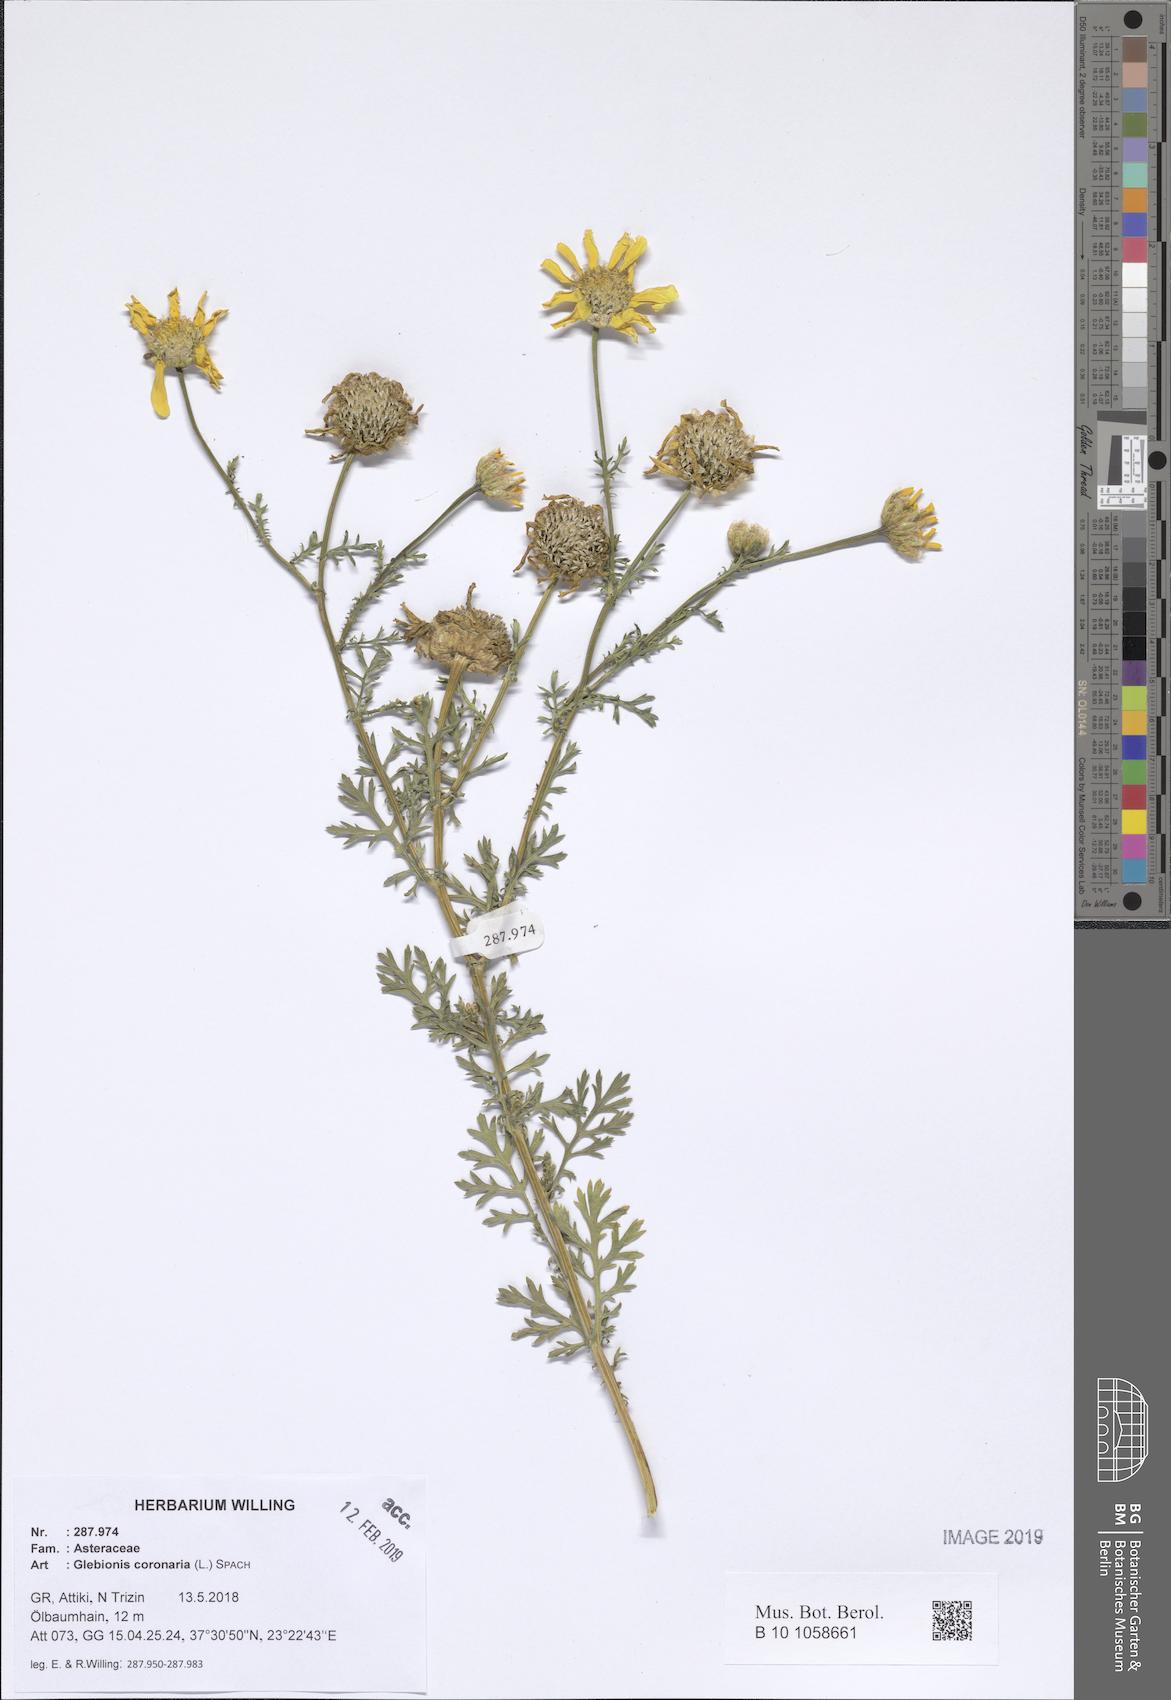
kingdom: Plantae
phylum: Tracheophyta
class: Magnoliopsida
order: Asterales
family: Asteraceae
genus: Glebionis
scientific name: Glebionis coronaria
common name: Crowndaisy
